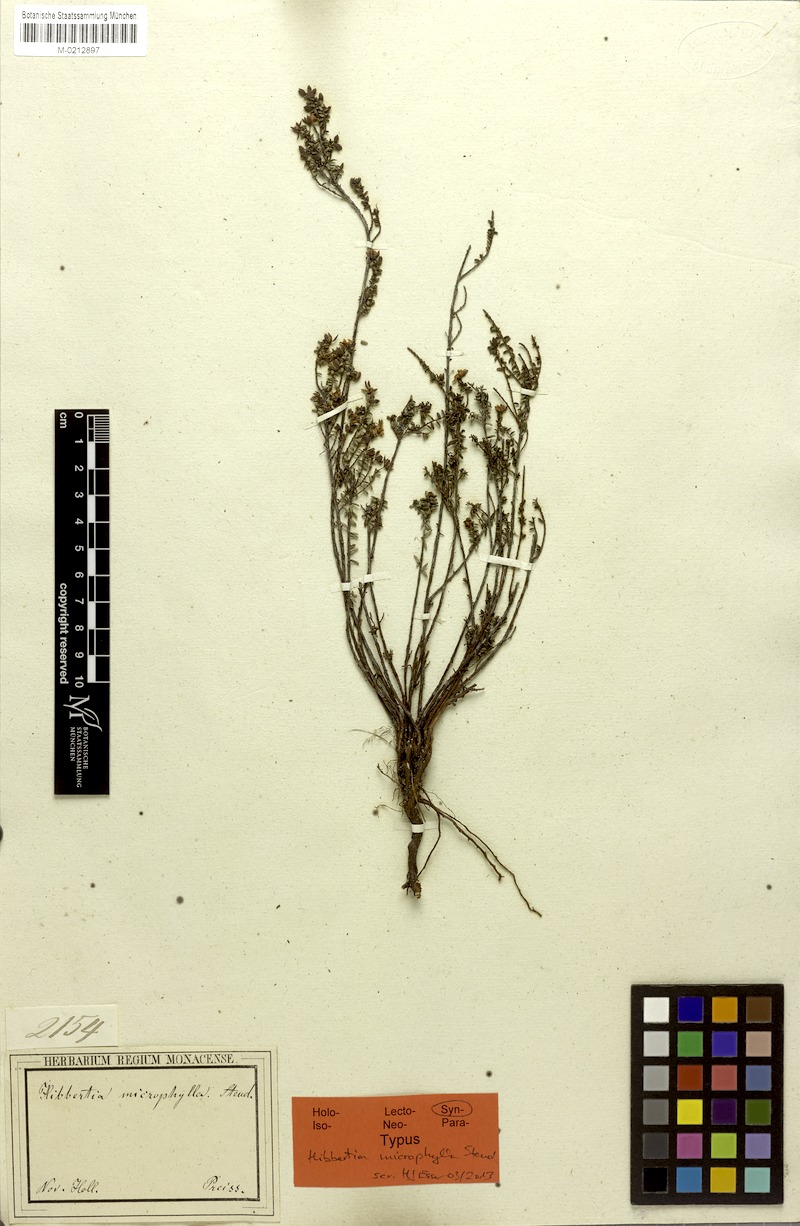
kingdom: Plantae
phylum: Tracheophyta
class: Magnoliopsida
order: Dilleniales
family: Dilleniaceae
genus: Hibbertia
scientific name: Hibbertia microphylla
